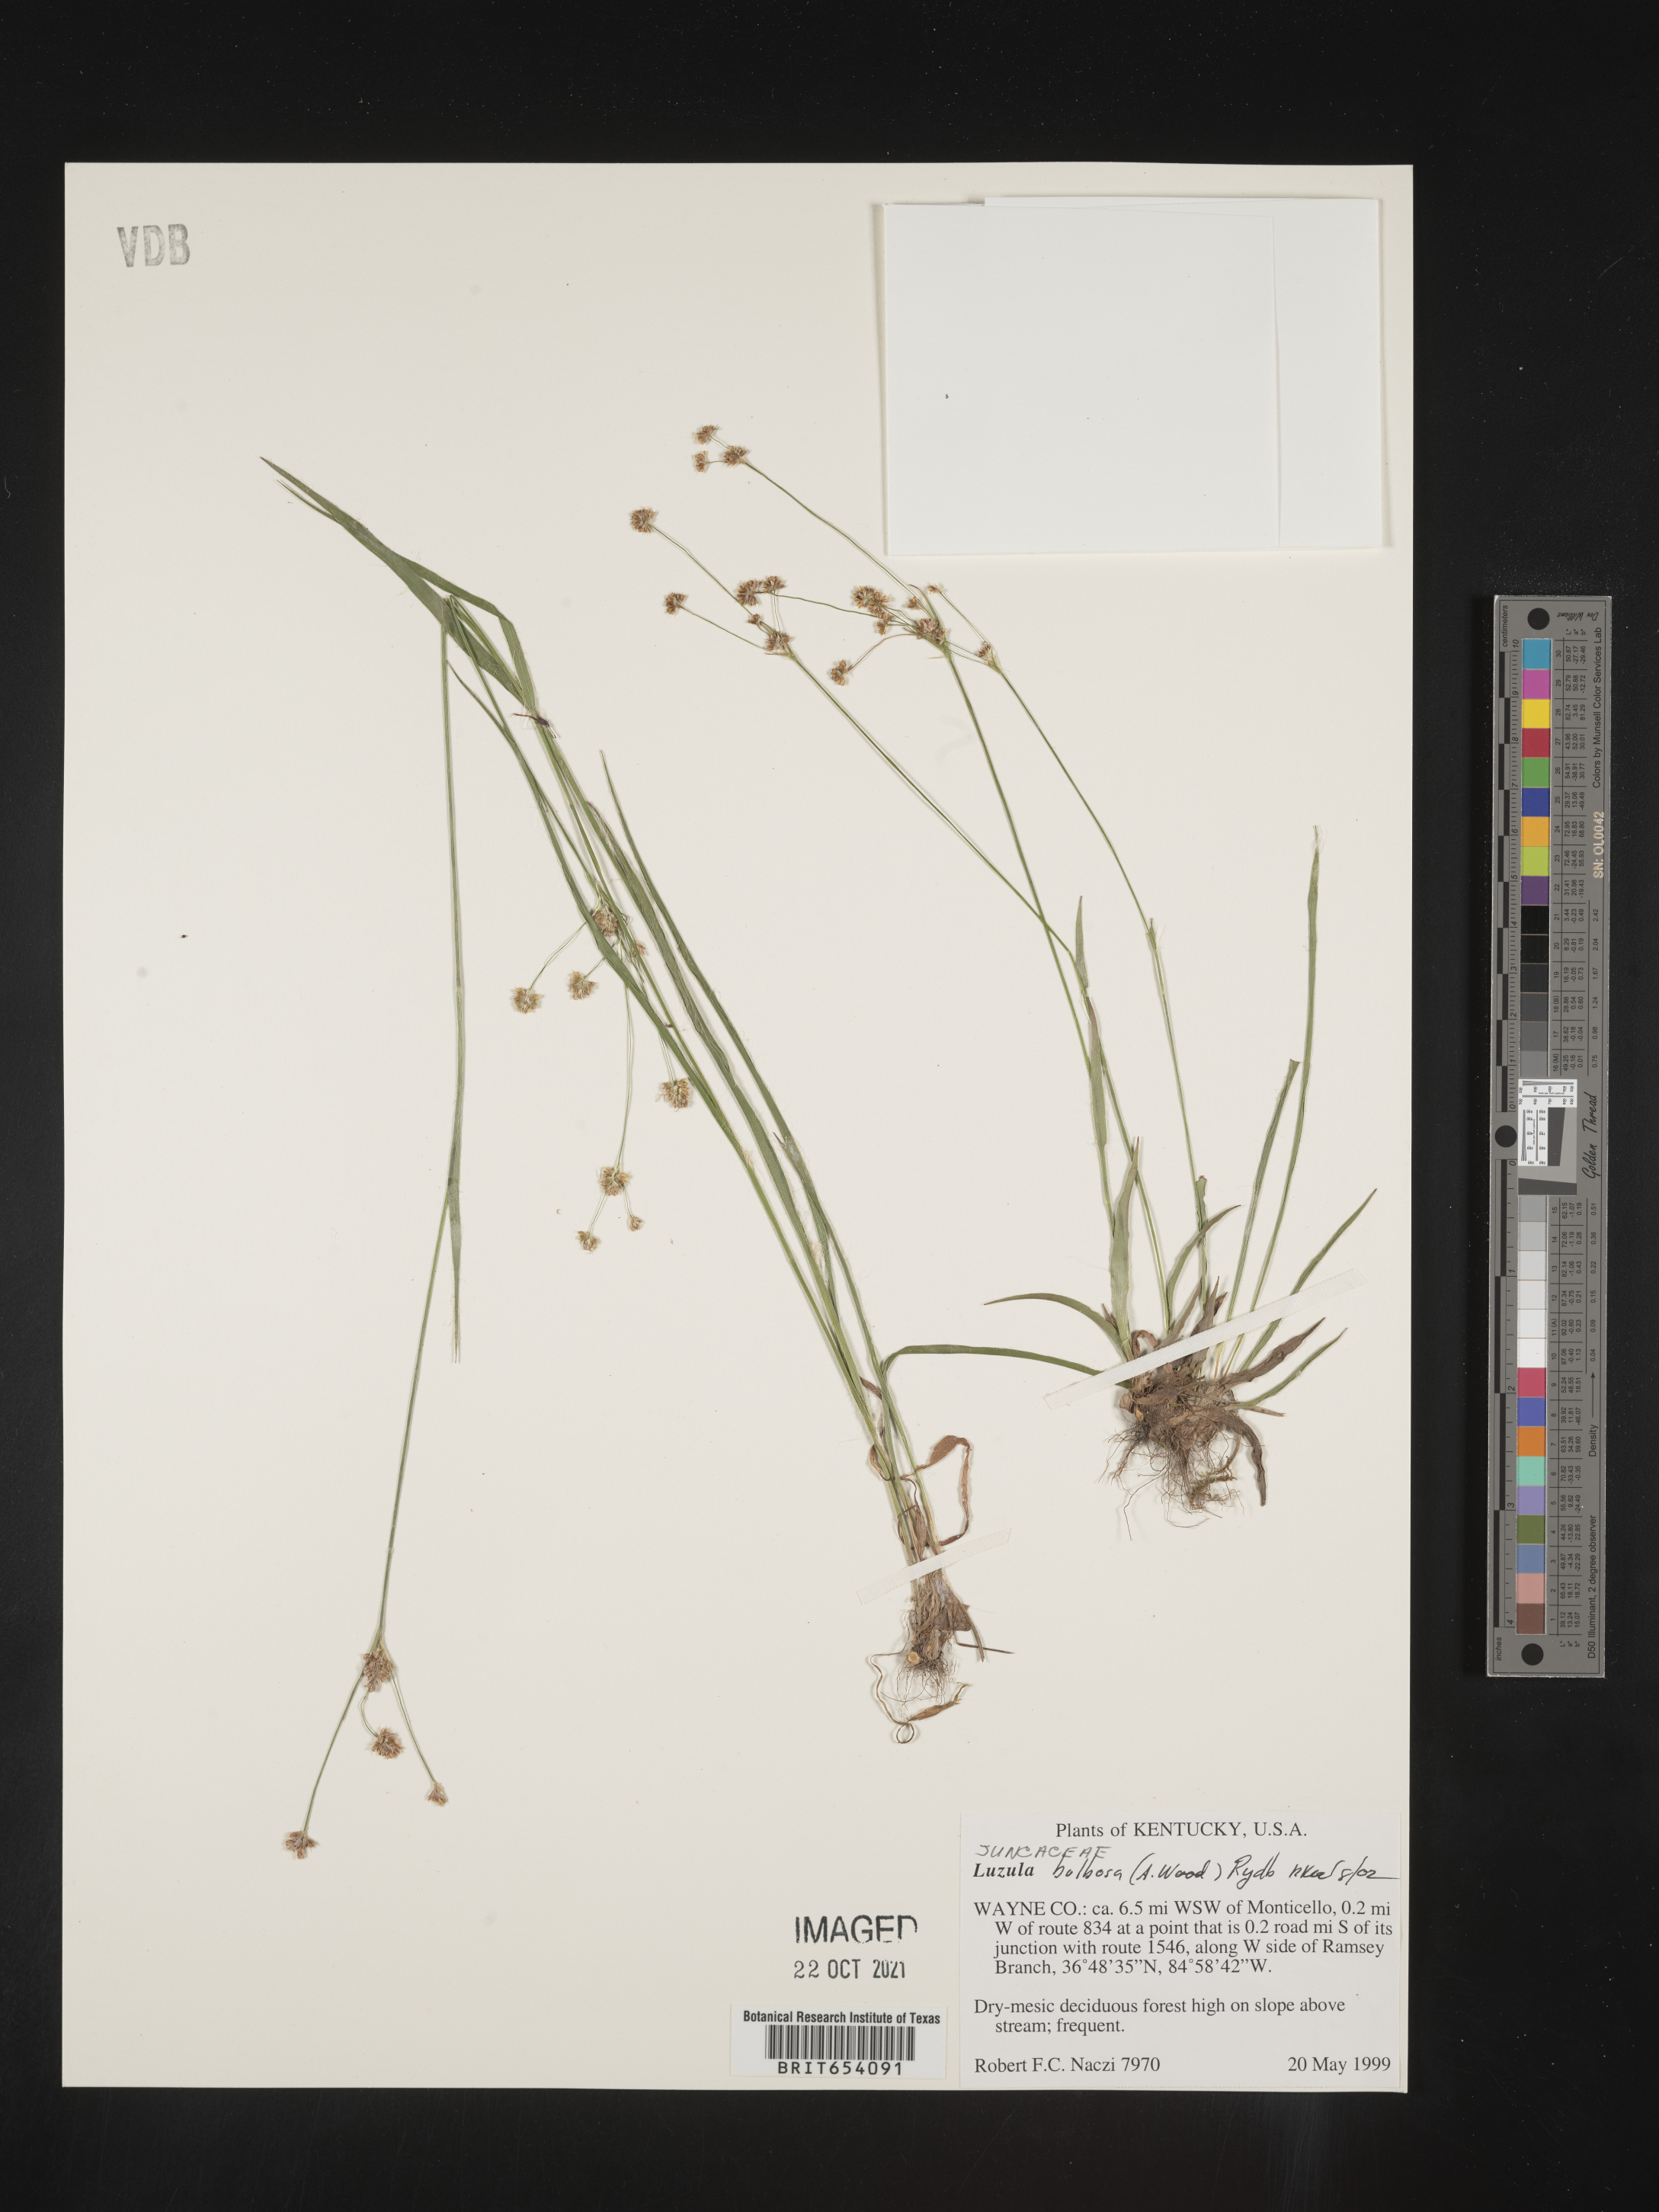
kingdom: Plantae
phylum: Tracheophyta
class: Liliopsida
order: Poales
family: Juncaceae
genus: Luzula
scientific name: Luzula bulbosa
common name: Bulbous woodrush
